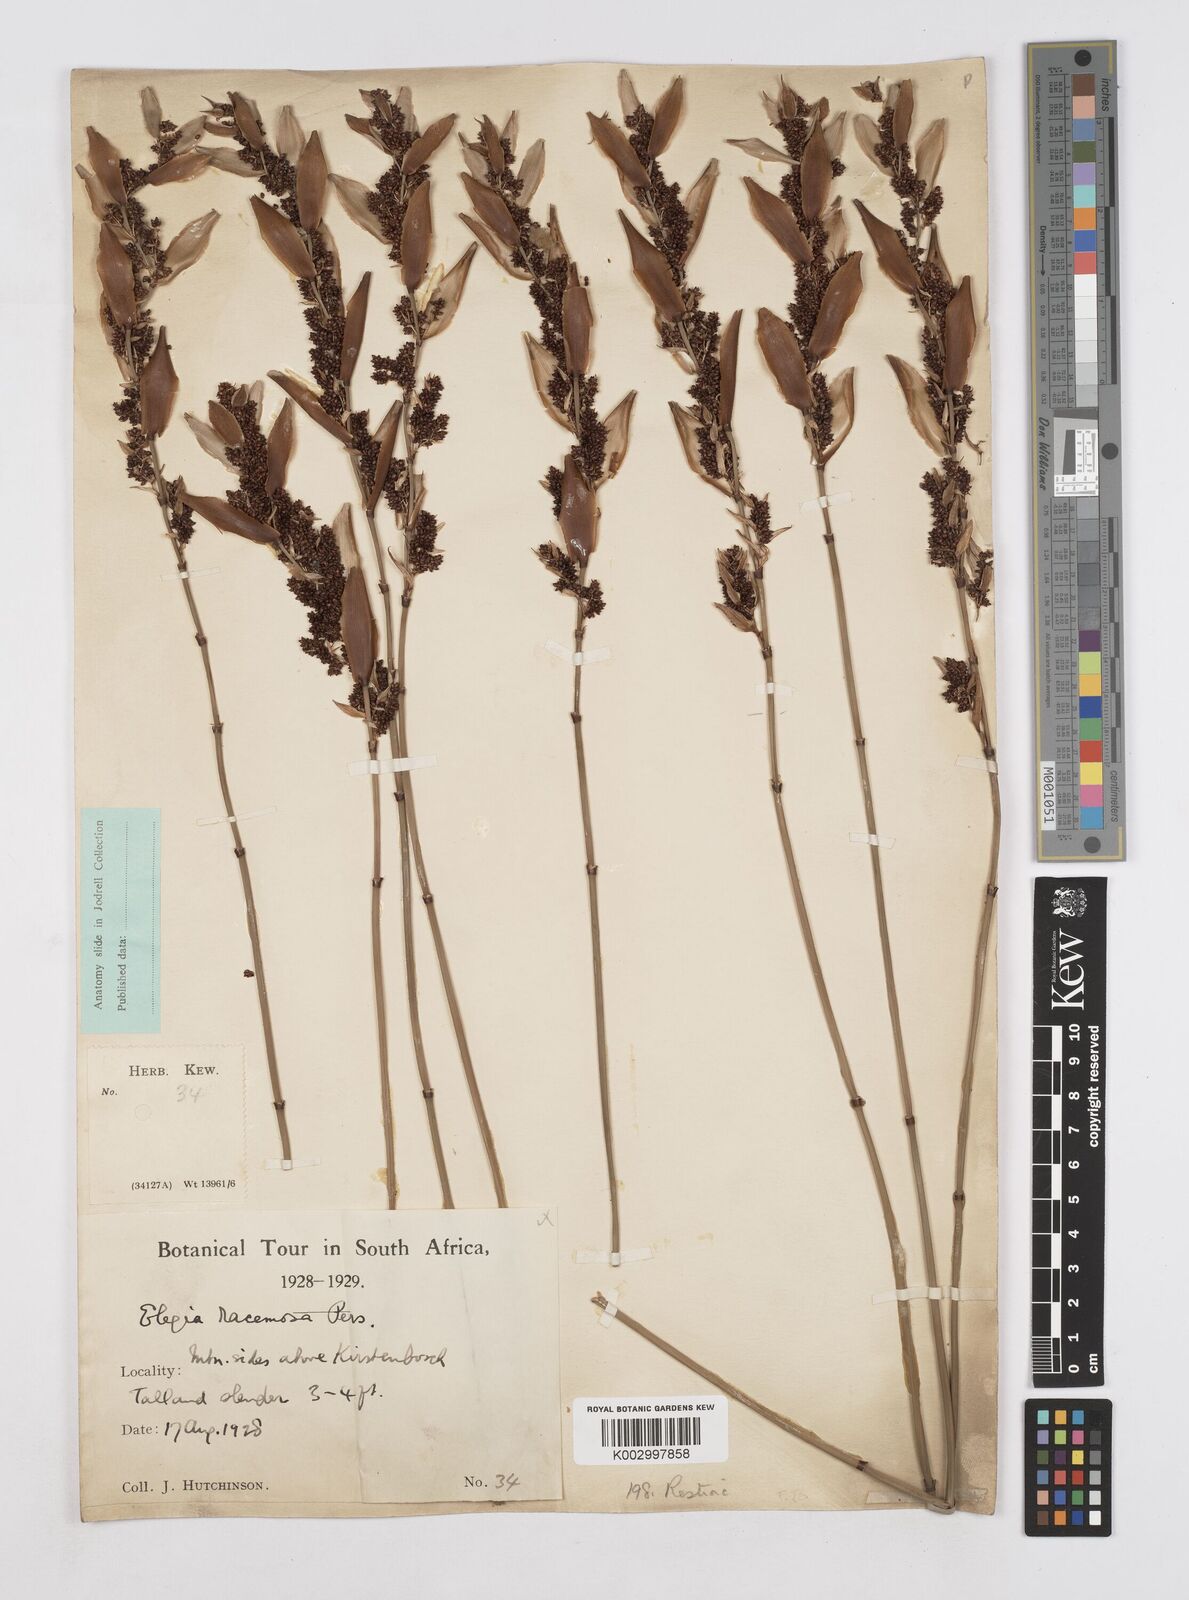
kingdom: Plantae
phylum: Tracheophyta
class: Liliopsida
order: Poales
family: Restionaceae
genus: Elegia
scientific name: Elegia racemosa
